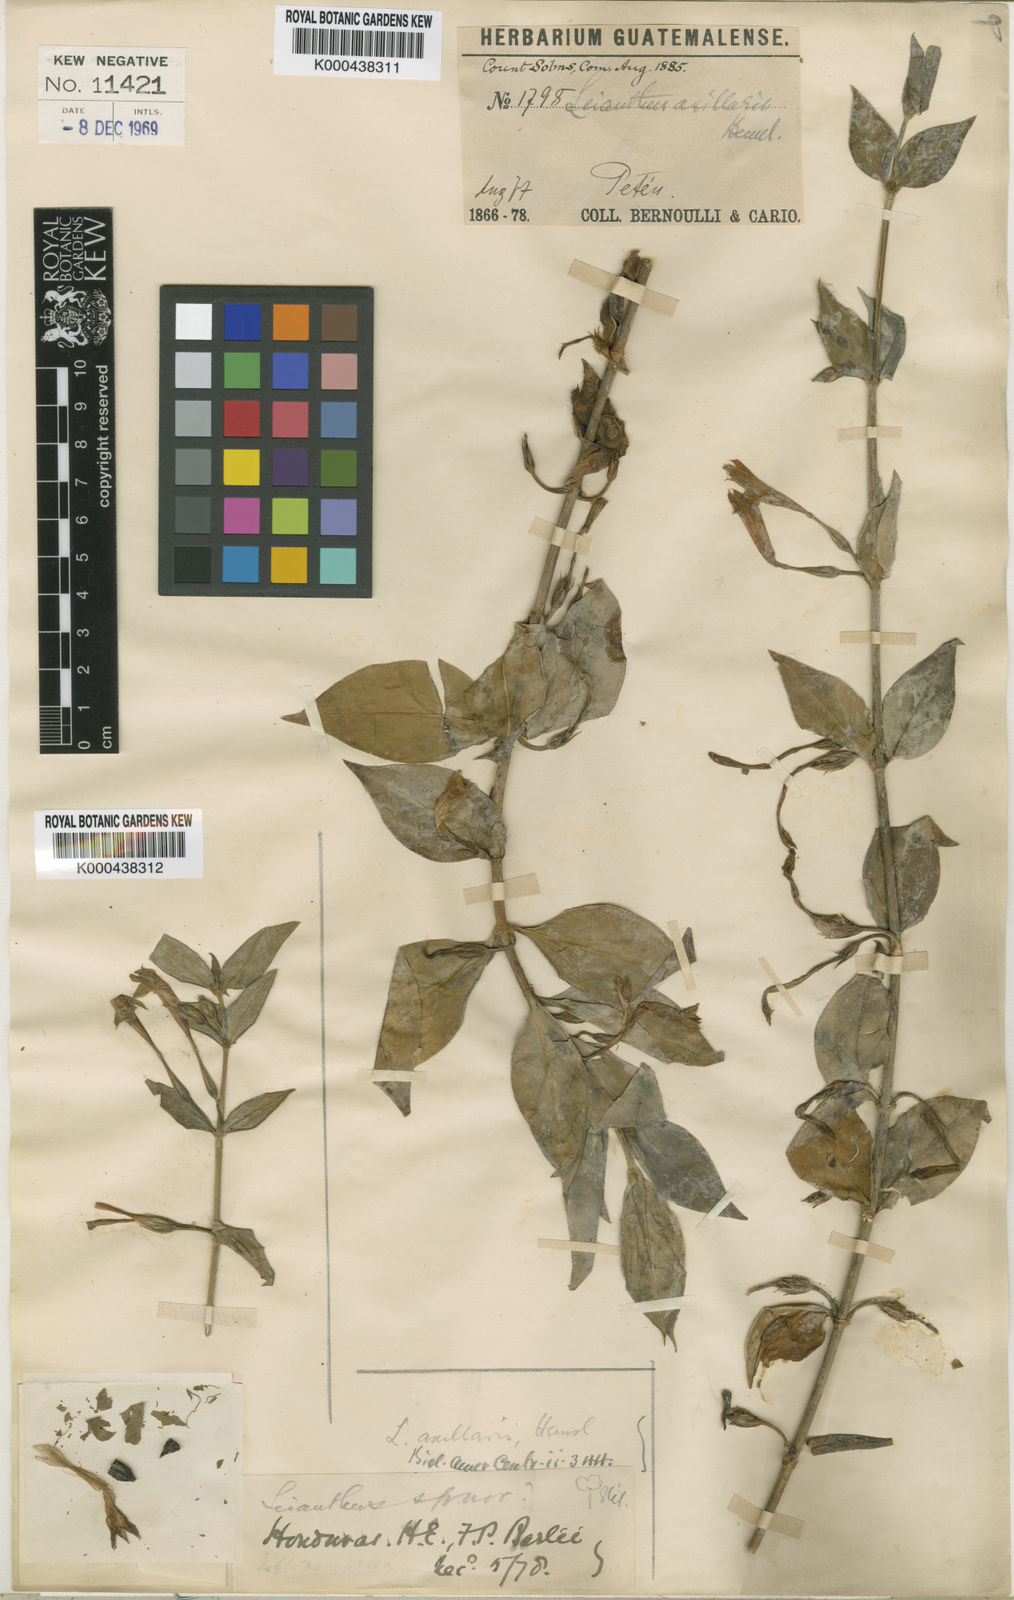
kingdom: Plantae
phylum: Tracheophyta
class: Magnoliopsida
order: Gentianales
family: Gentianaceae
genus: Enicostema
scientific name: Enicostema axillare
